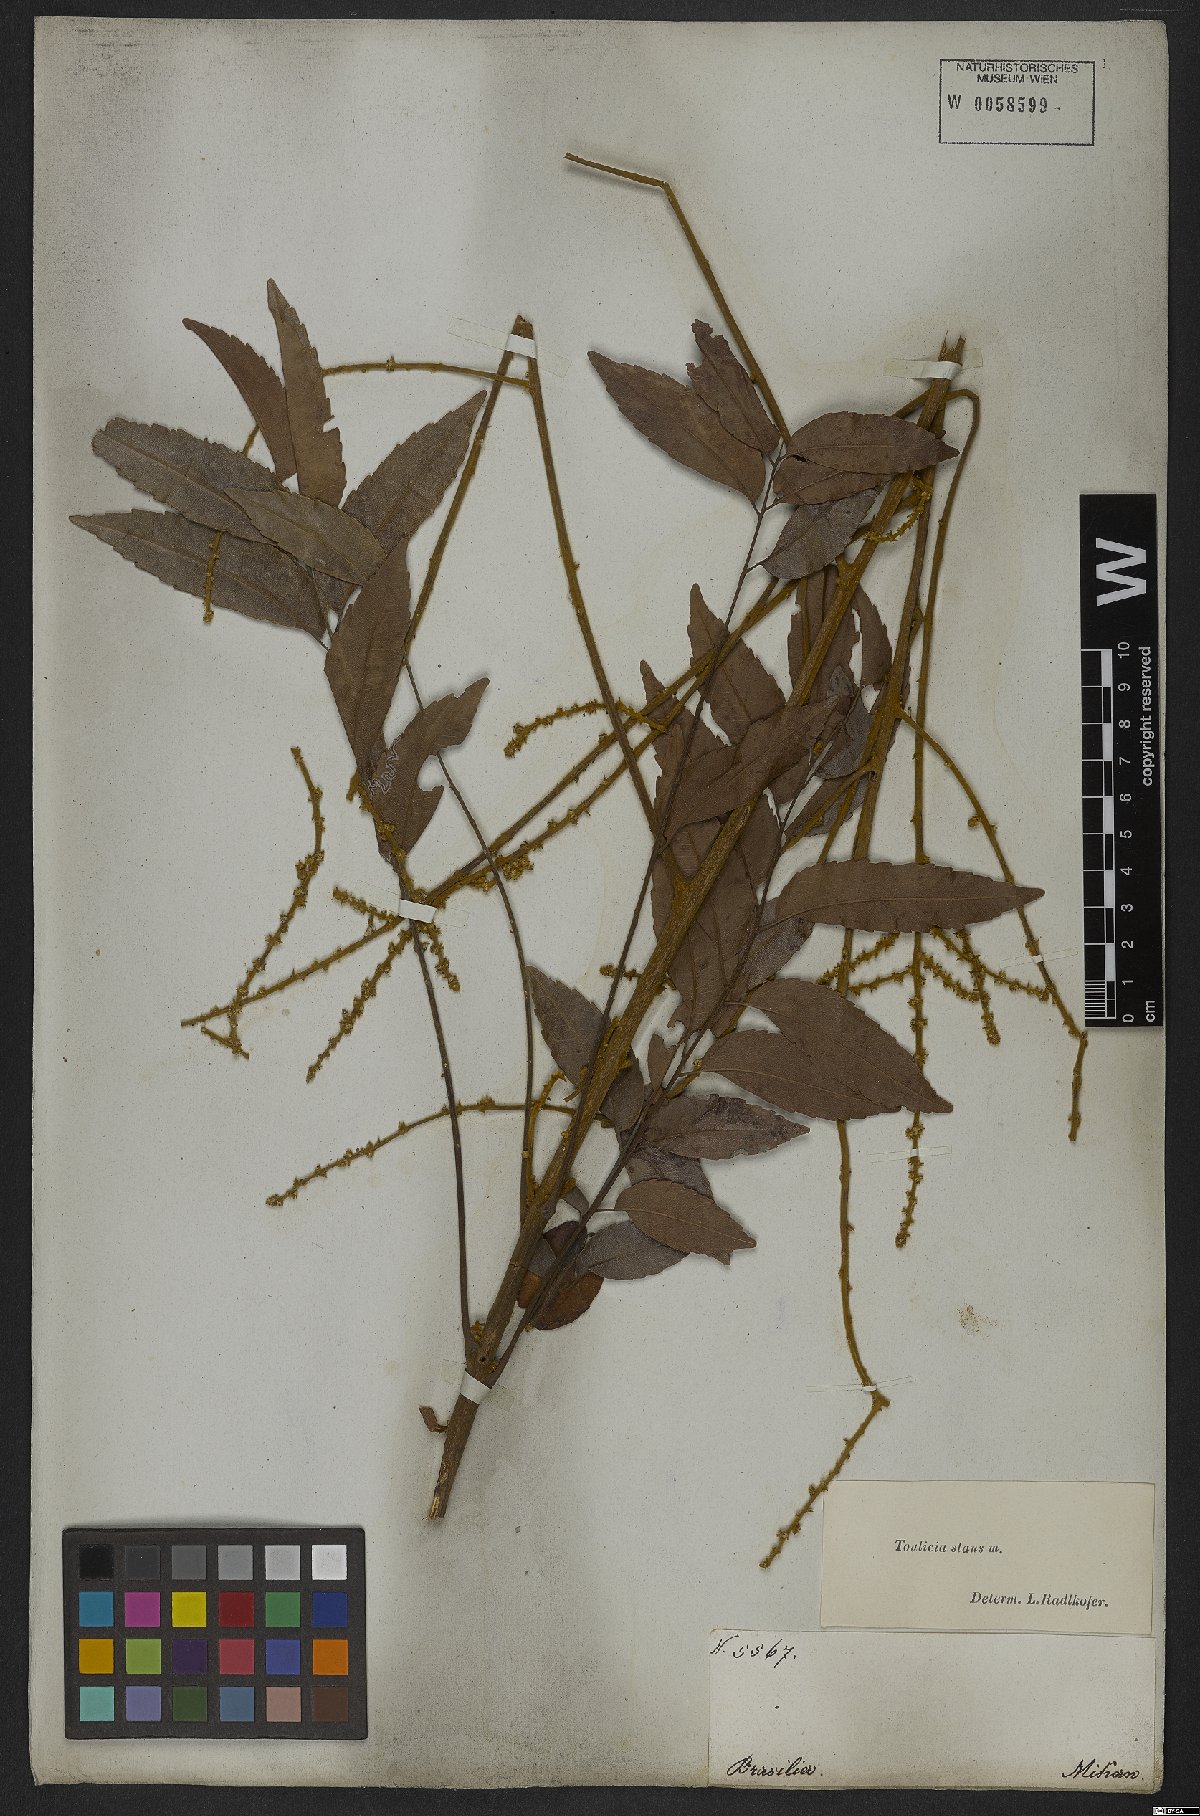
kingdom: Plantae
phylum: Tracheophyta
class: Magnoliopsida
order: Sapindales
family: Sapindaceae
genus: Toulicia
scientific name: Toulicia stans
